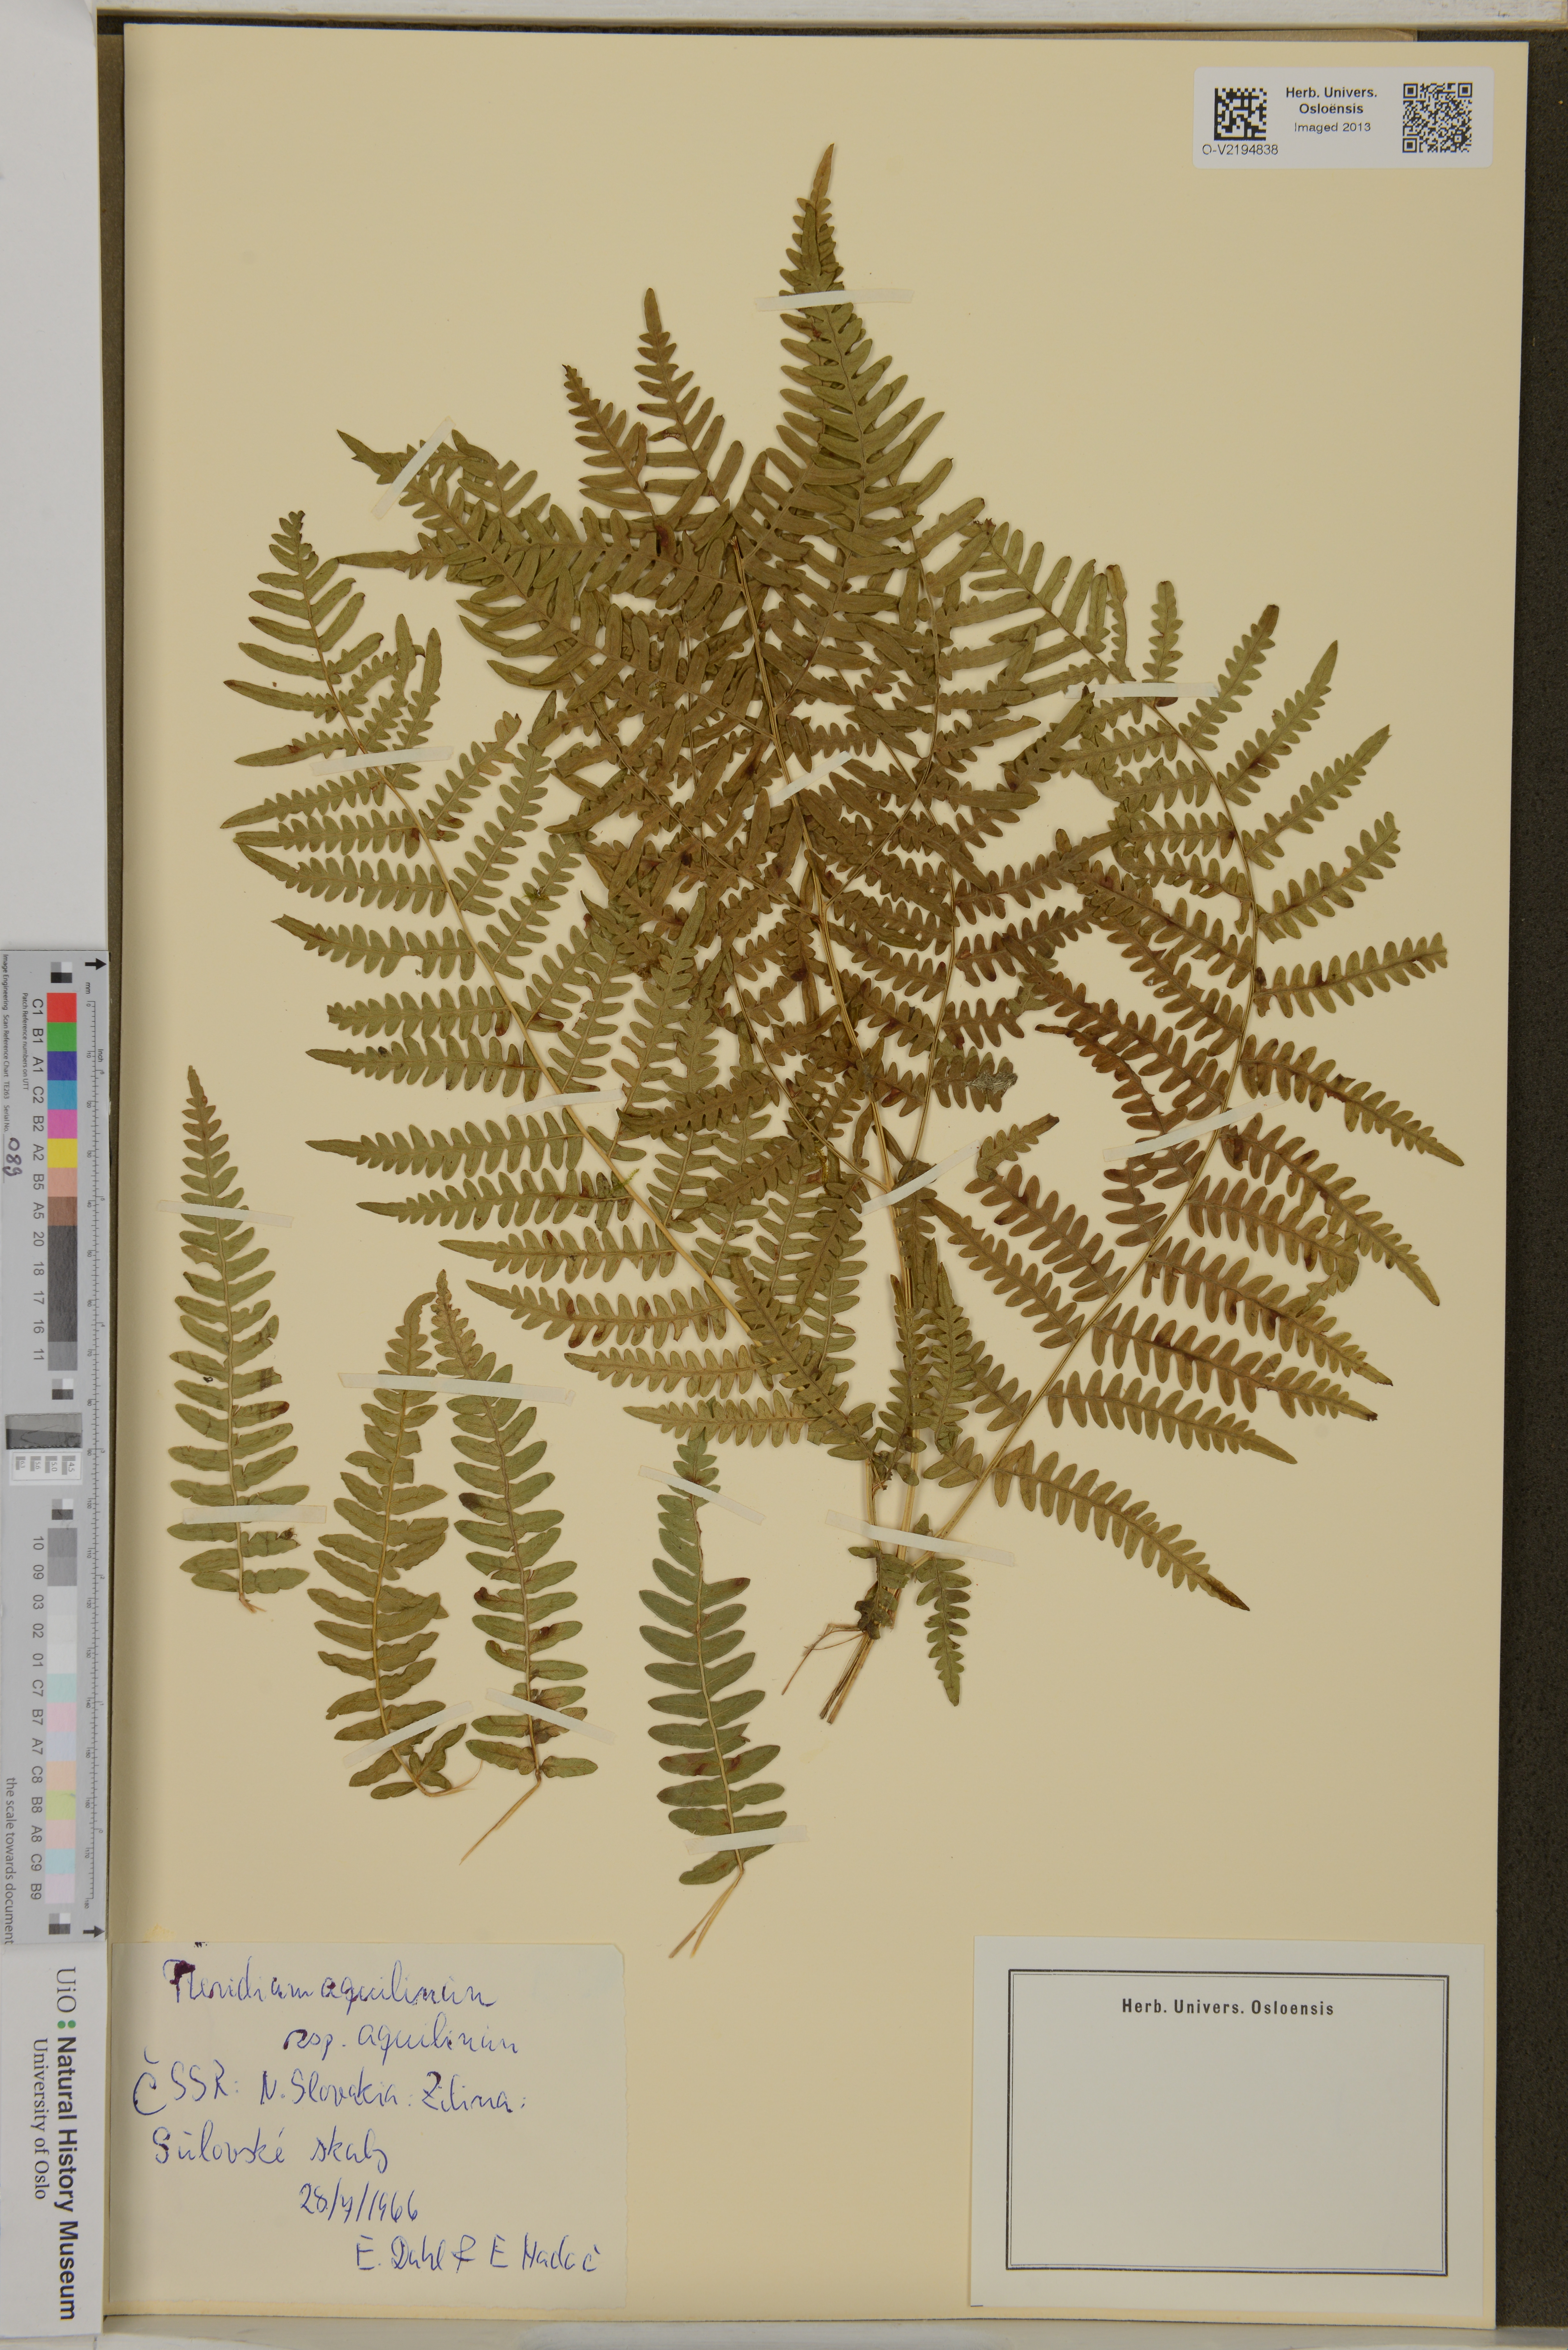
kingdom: Plantae
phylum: Tracheophyta
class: Polypodiopsida
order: Polypodiales
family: Dennstaedtiaceae
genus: Pteridium
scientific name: Pteridium aquilinum
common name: Bracken
